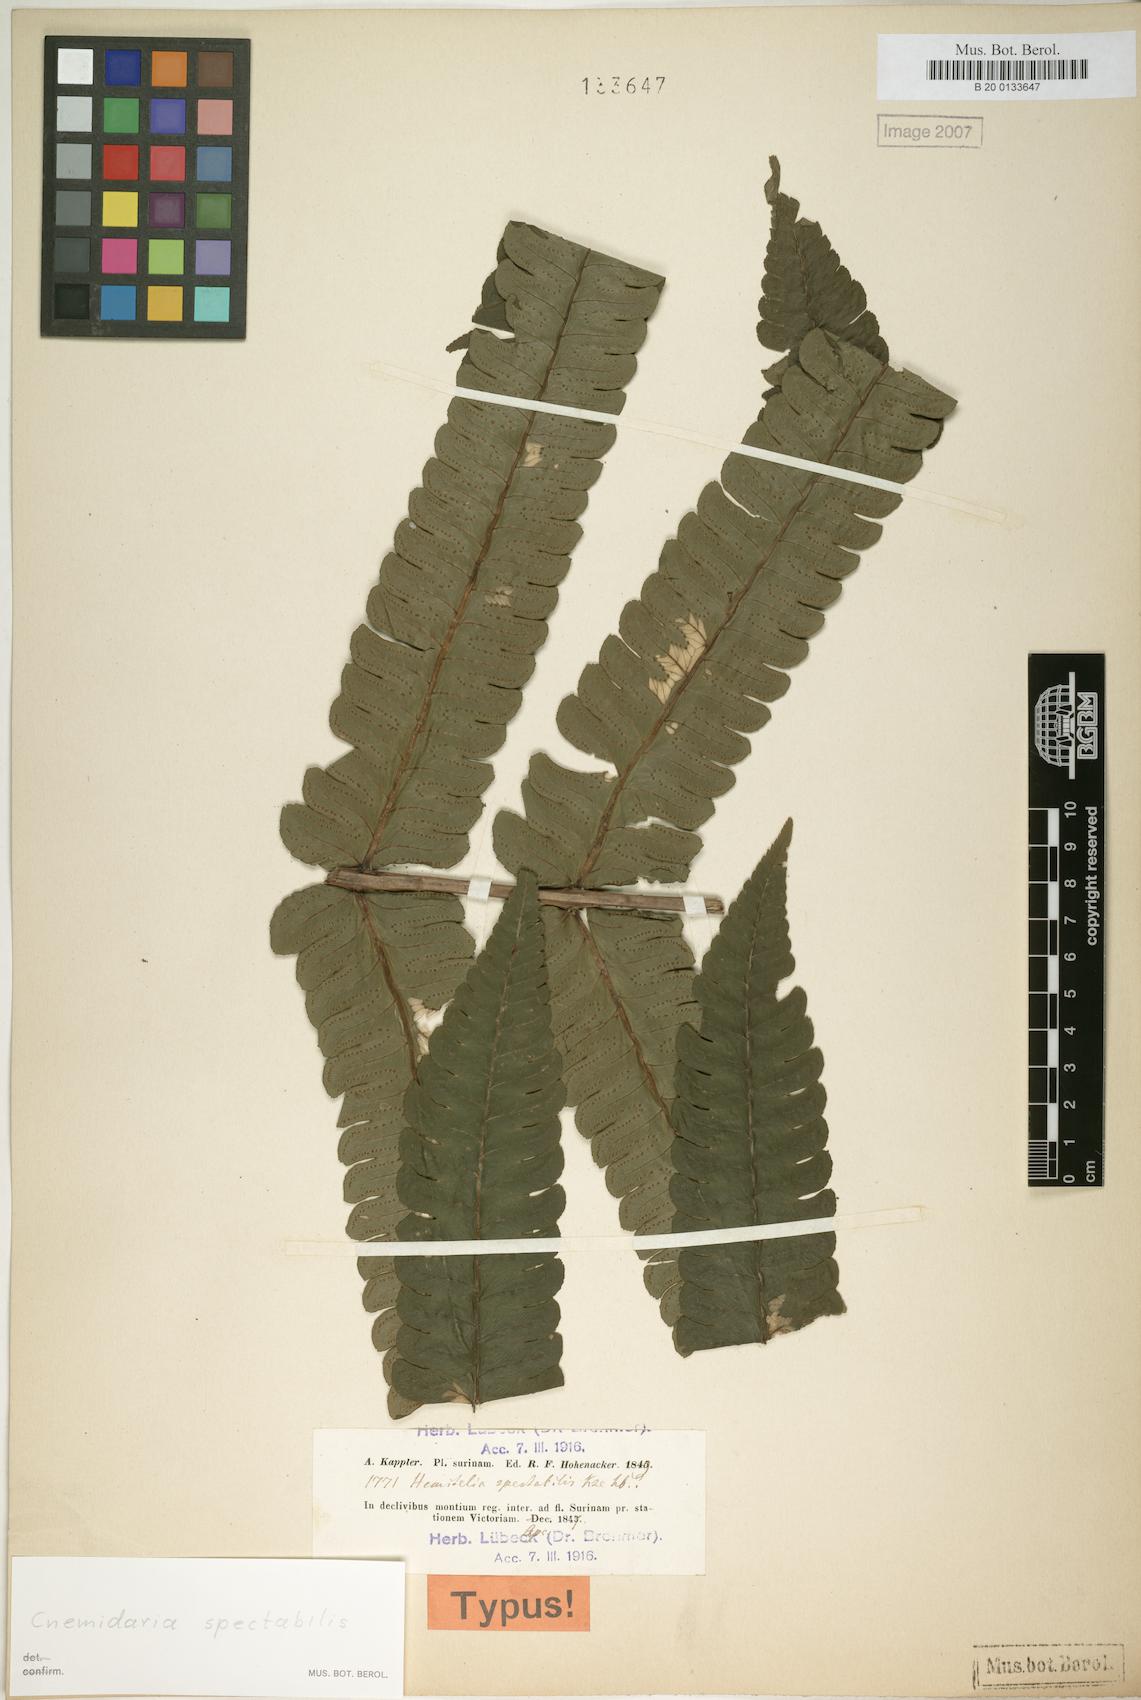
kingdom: Plantae
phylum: Tracheophyta
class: Polypodiopsida
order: Cyatheales
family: Cyatheaceae
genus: Cyathea
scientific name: Cyathea spectabilis
